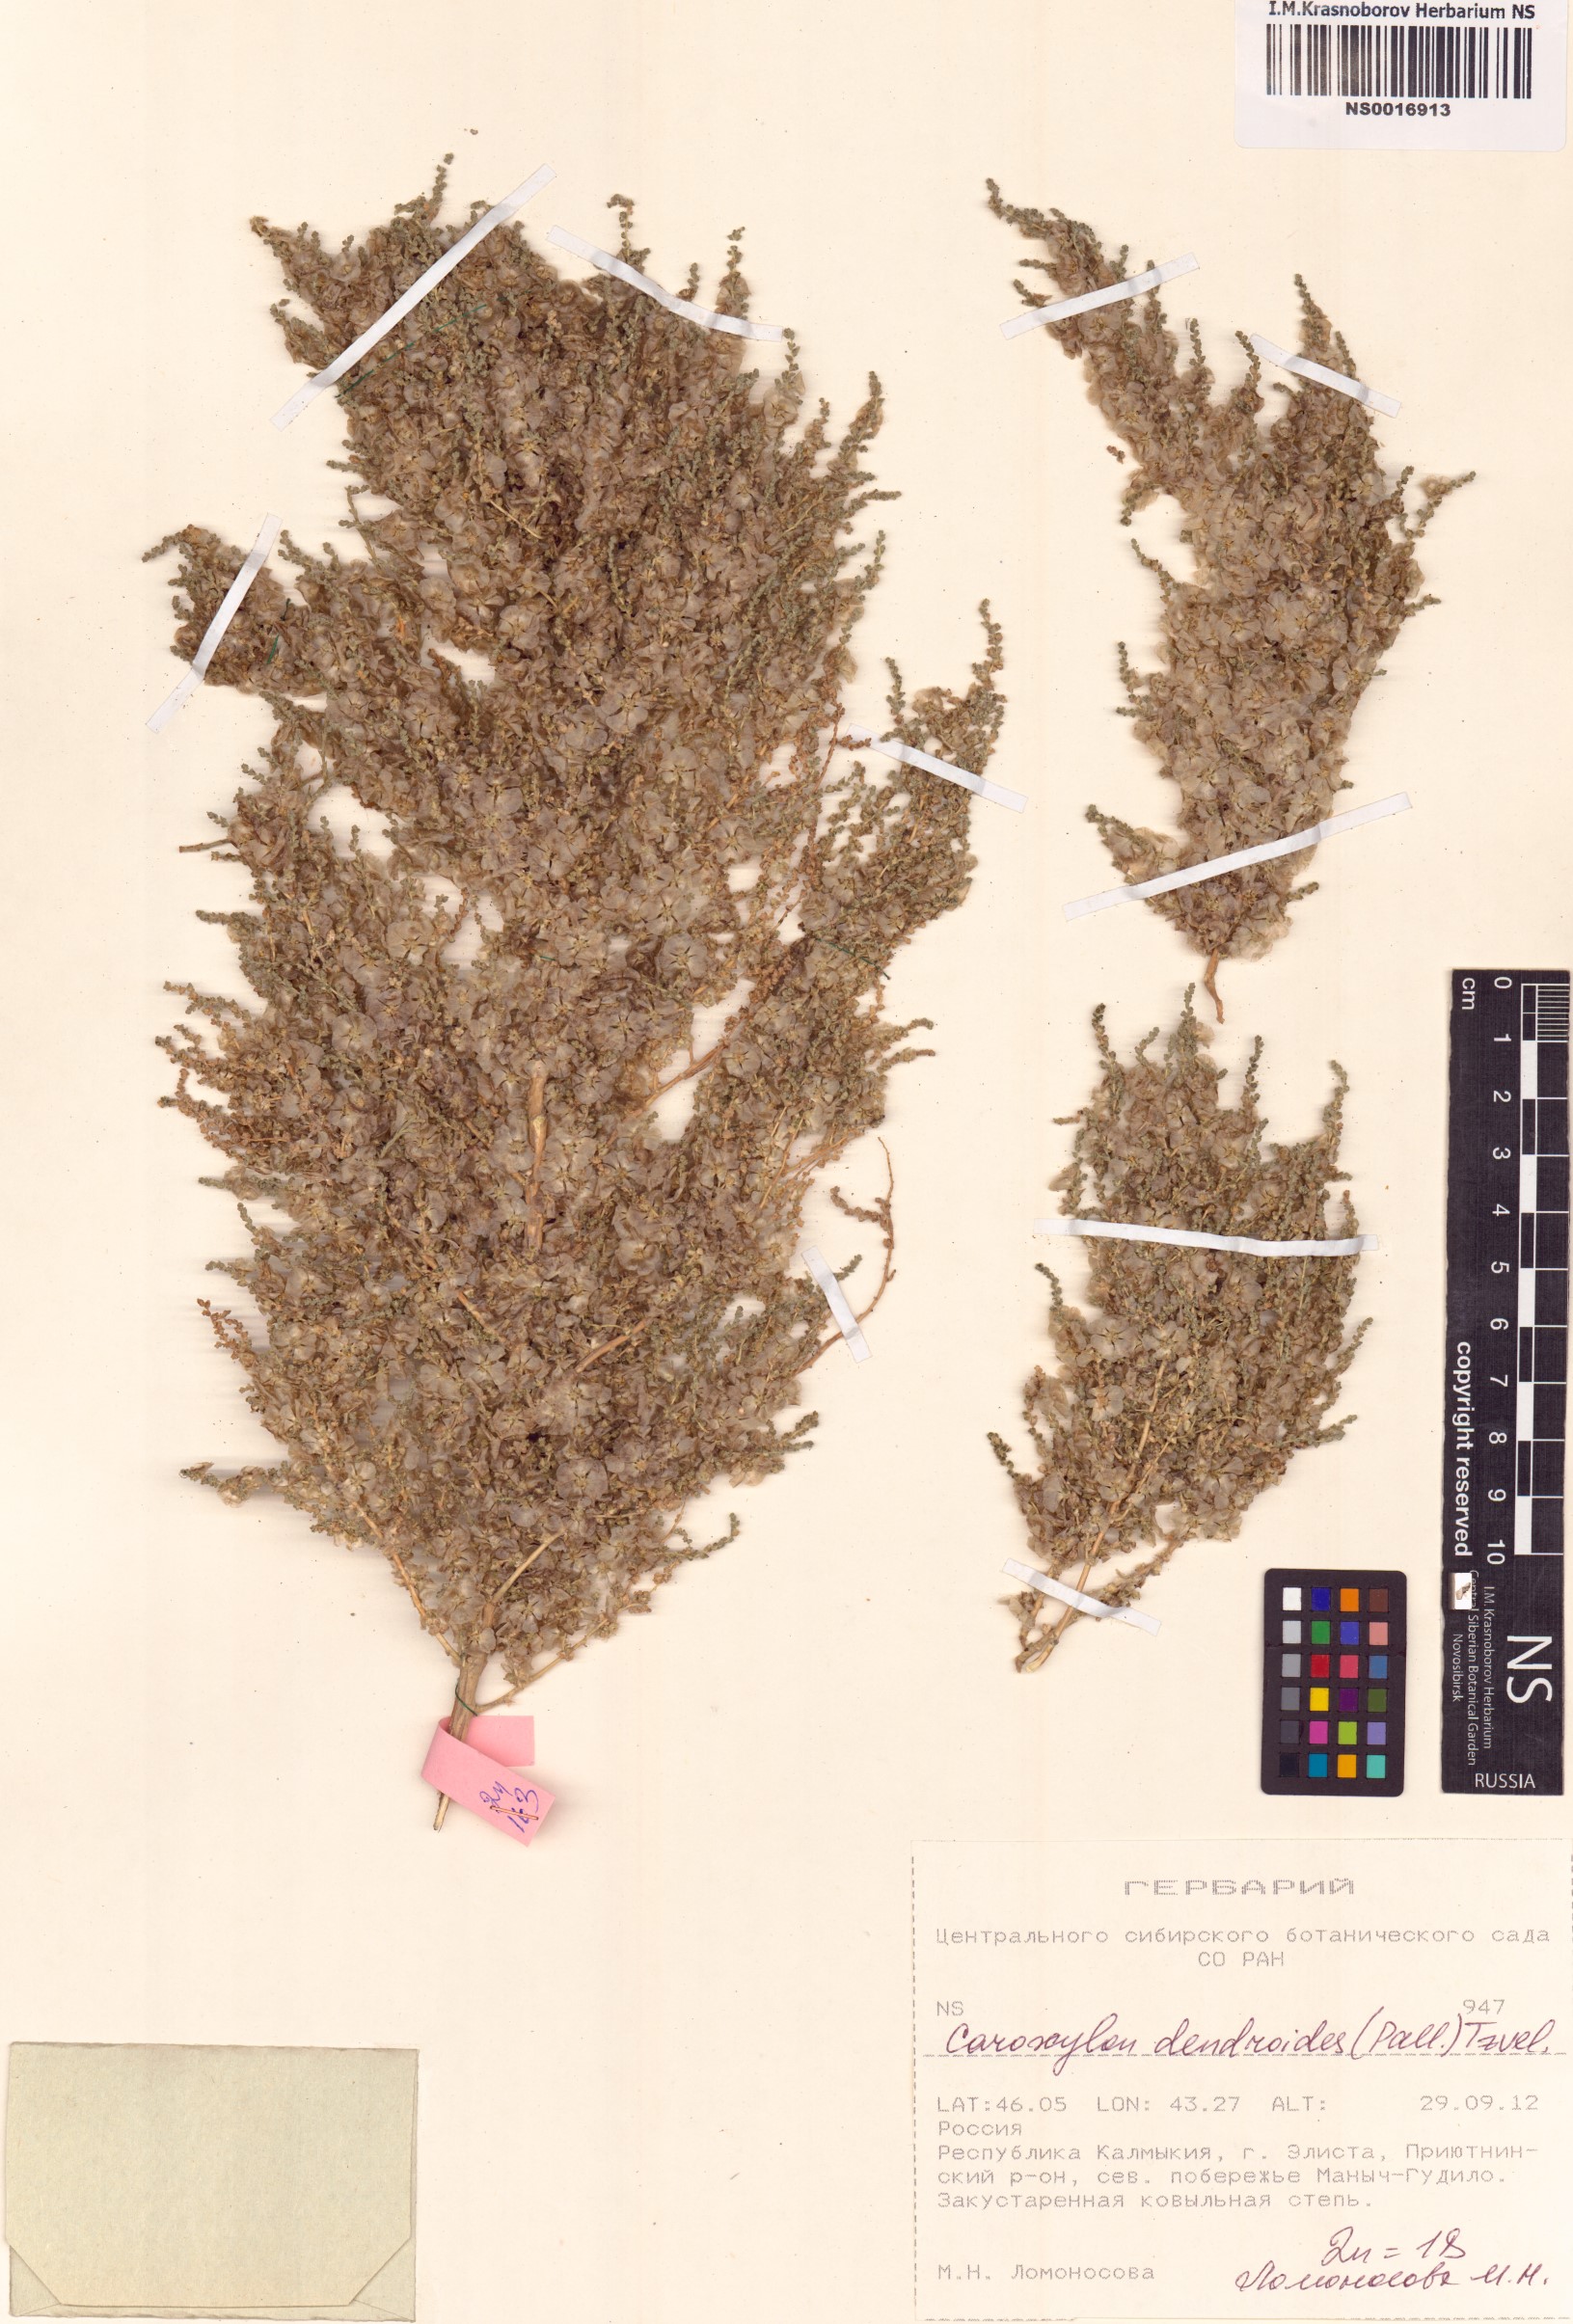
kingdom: Plantae
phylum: Tracheophyta
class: Magnoliopsida
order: Caryophyllales
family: Amaranthaceae
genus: Nitrosalsola
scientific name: Nitrosalsola dendroides
